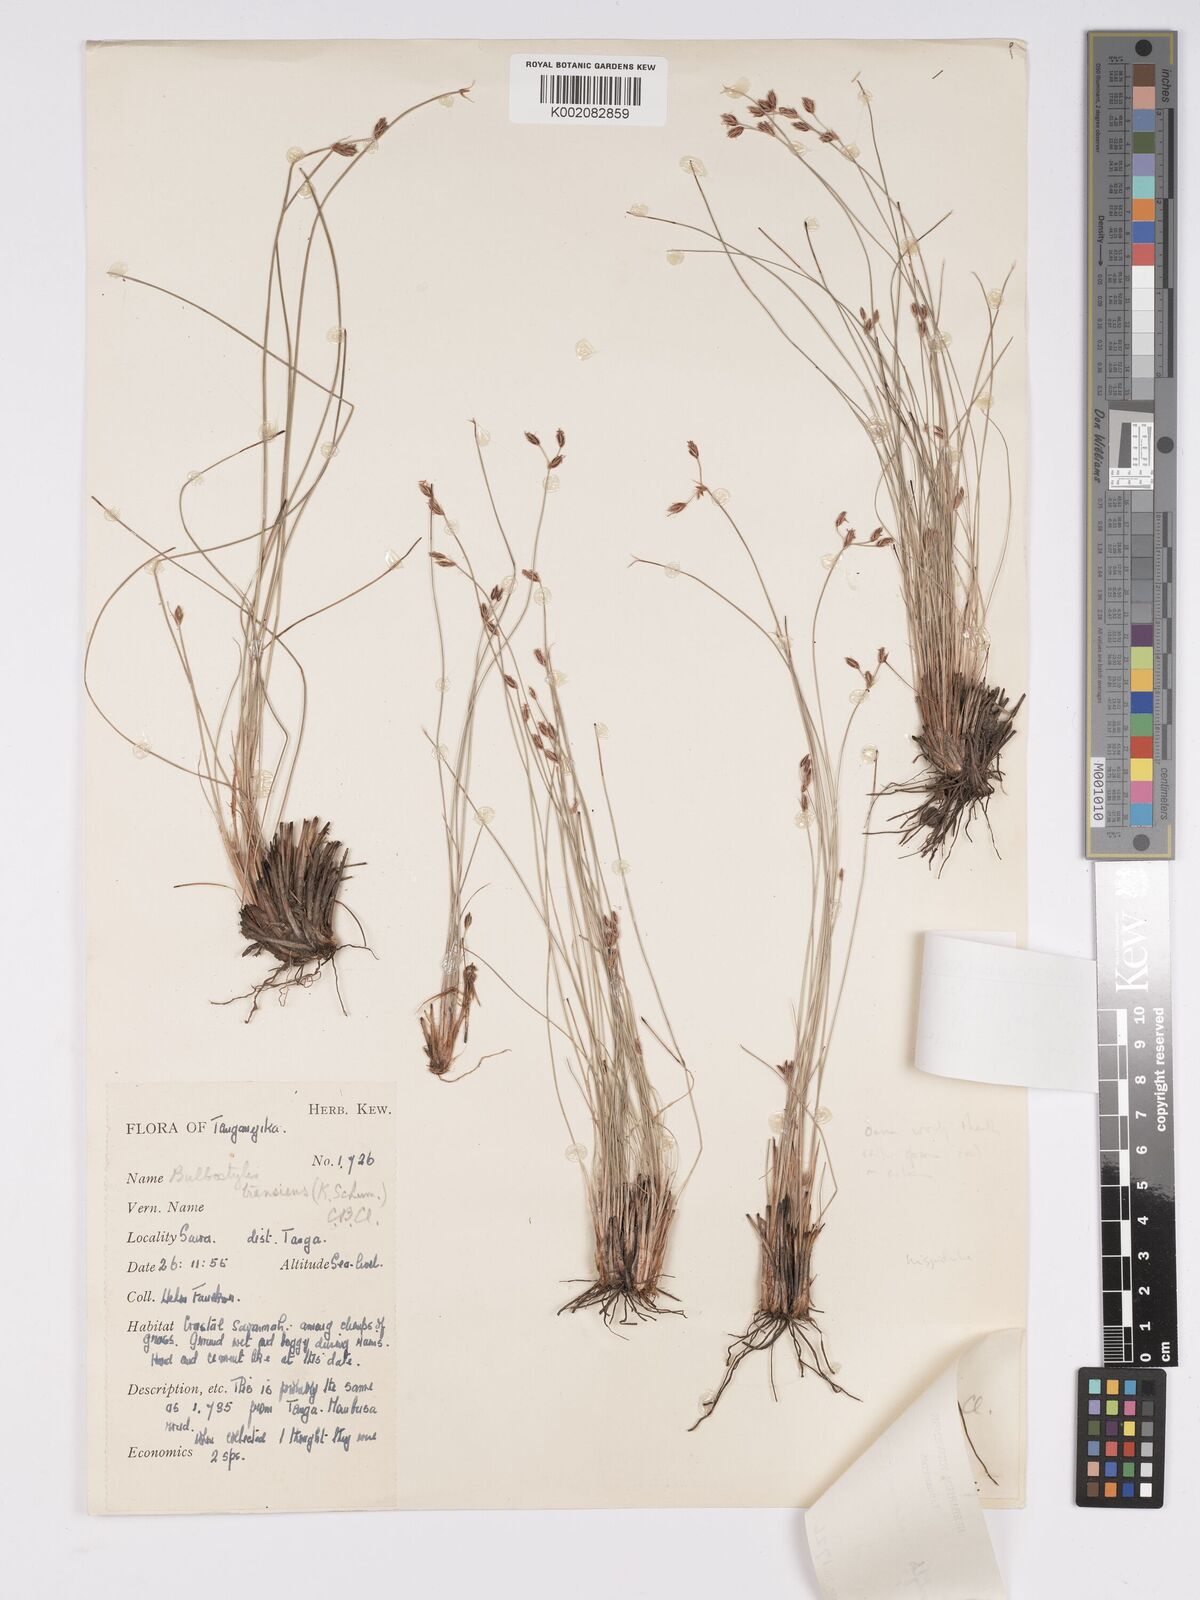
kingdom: Plantae
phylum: Tracheophyta
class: Liliopsida
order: Poales
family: Cyperaceae
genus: Bulbostylis
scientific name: Bulbostylis hispidula
